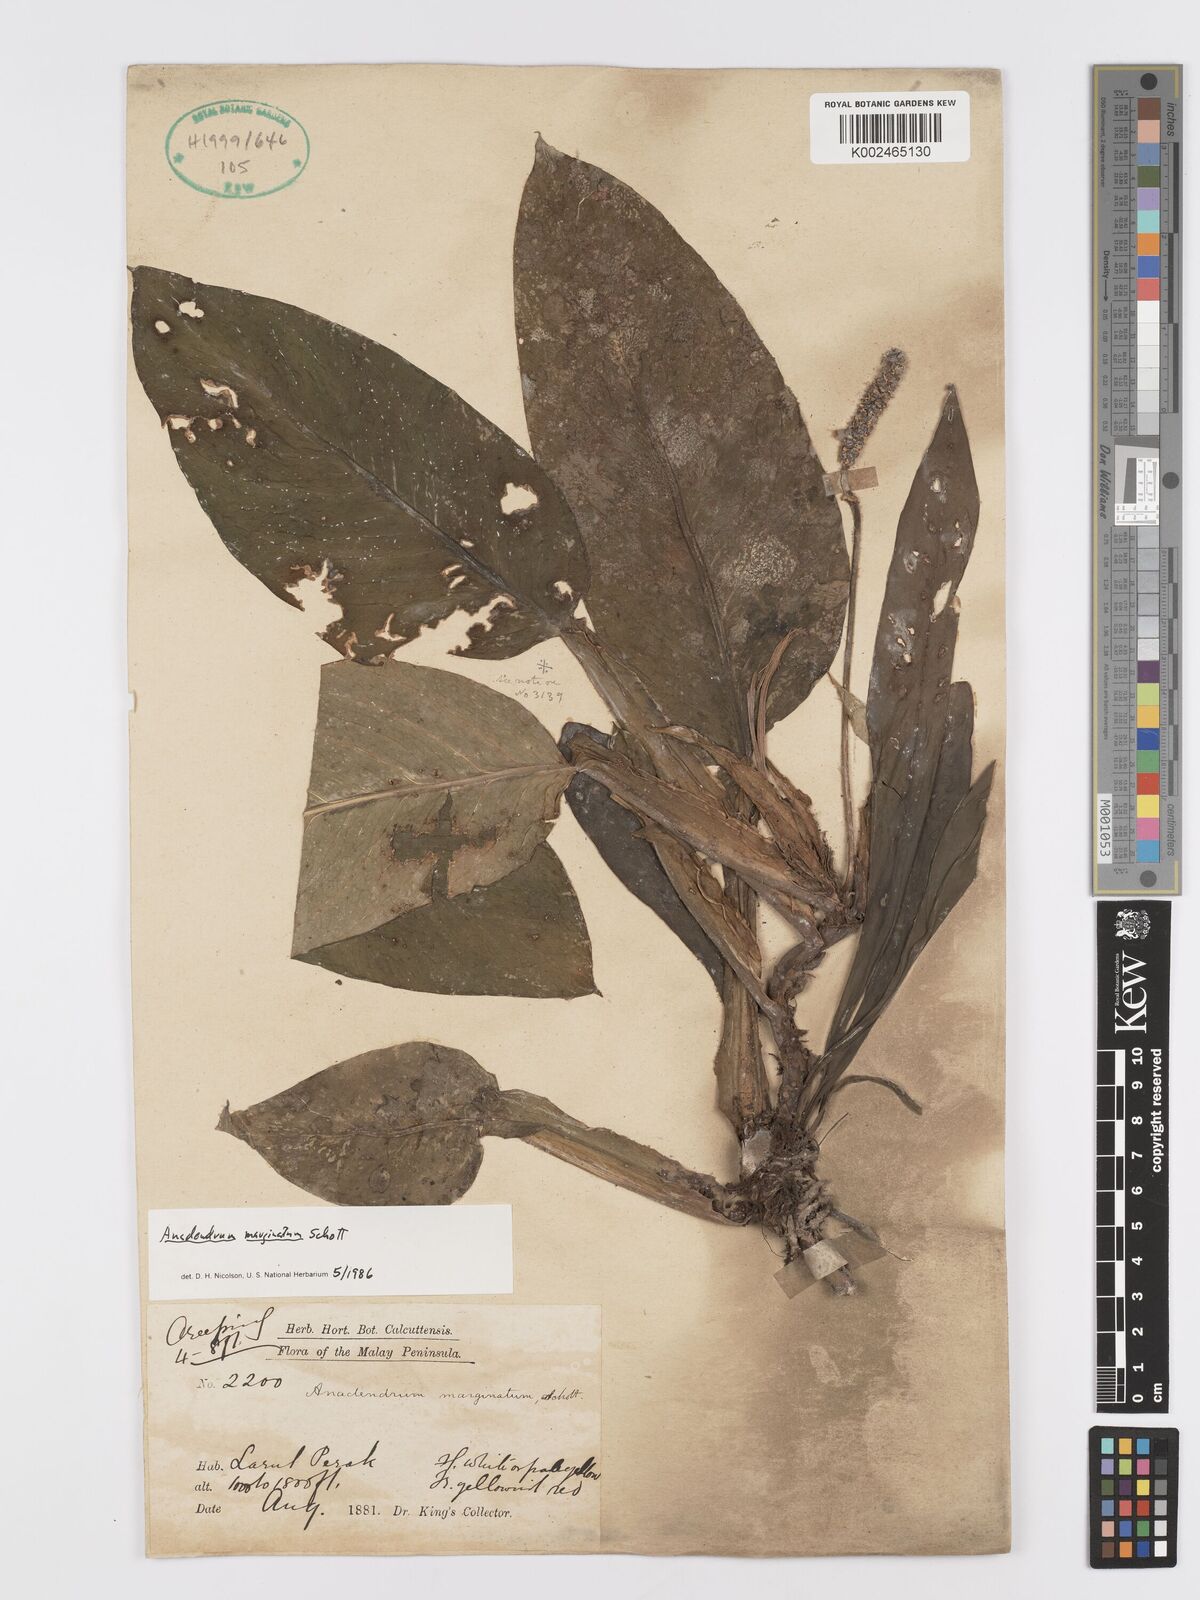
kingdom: Plantae
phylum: Tracheophyta
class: Liliopsida
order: Alismatales
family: Araceae
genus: Anadendrum
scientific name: Anadendrum marginatum
